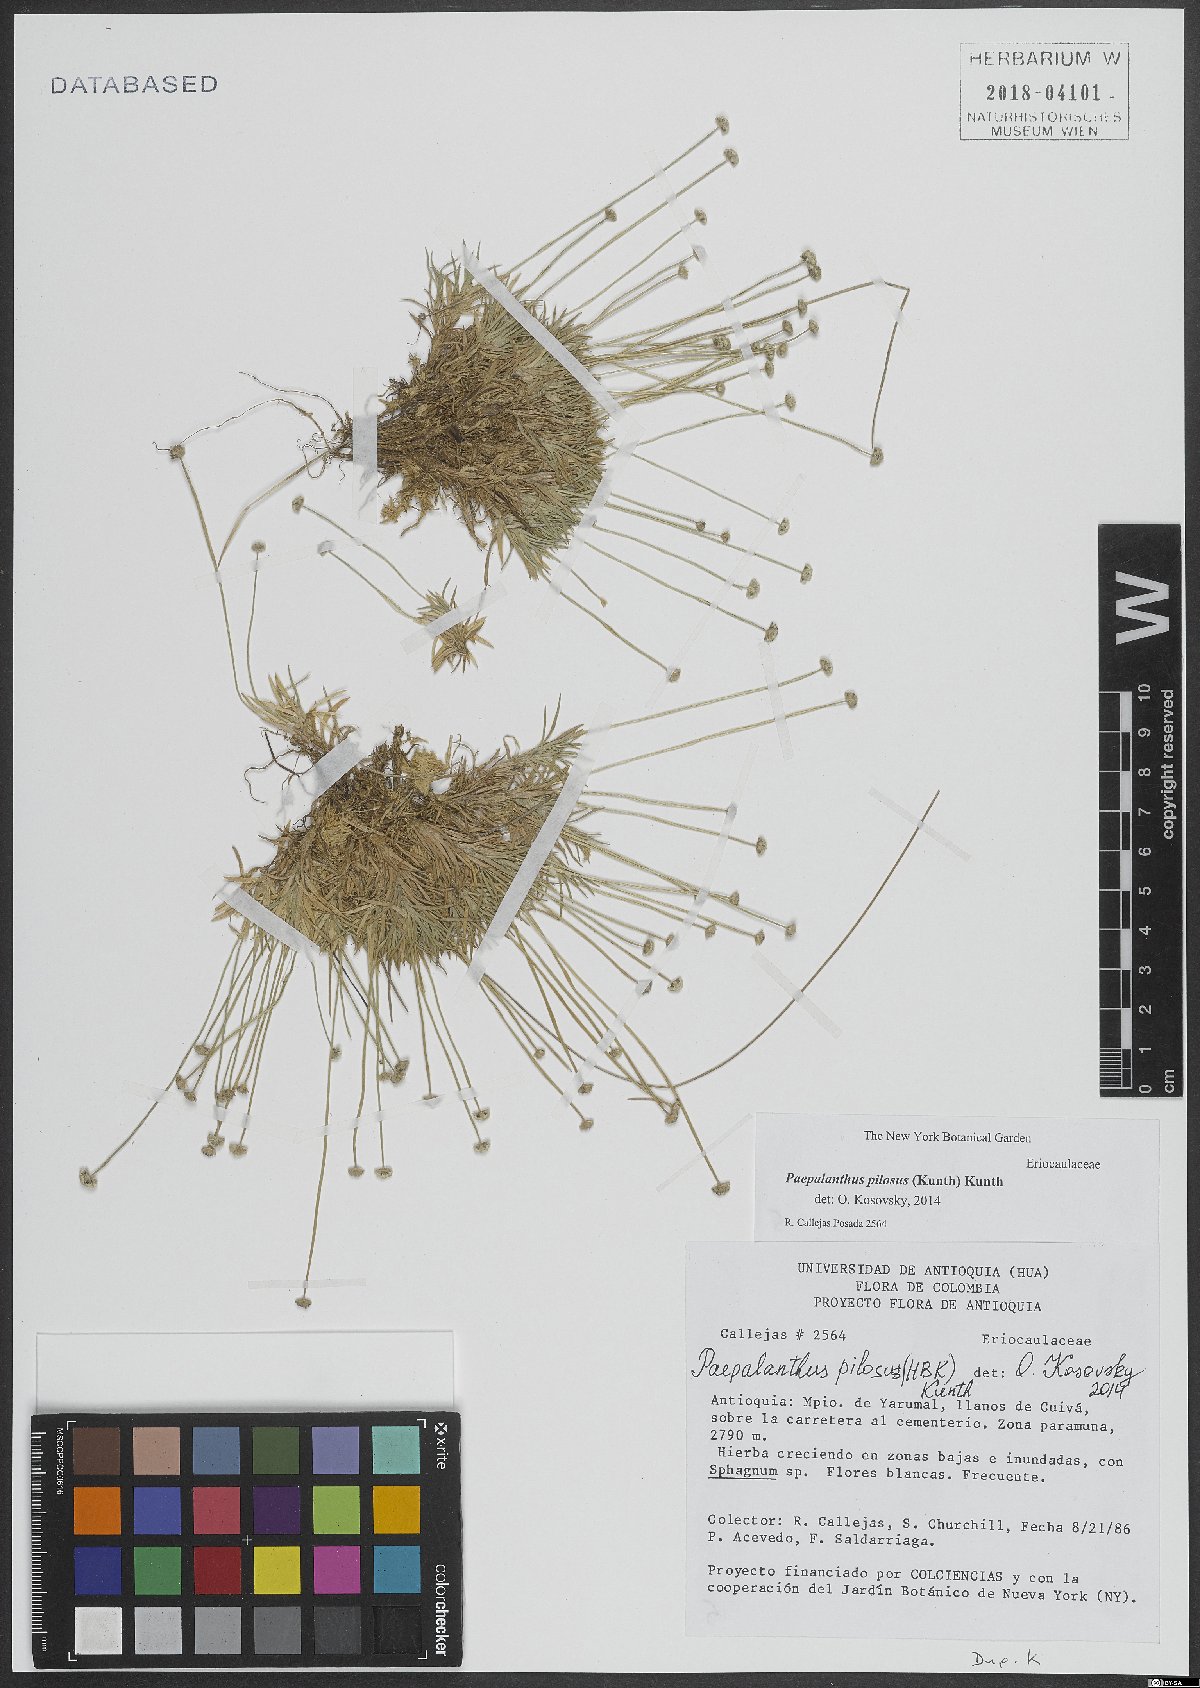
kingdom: Plantae
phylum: Tracheophyta
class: Liliopsida
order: Poales
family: Eriocaulaceae
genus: Paepalanthus
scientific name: Paepalanthus pilosus
